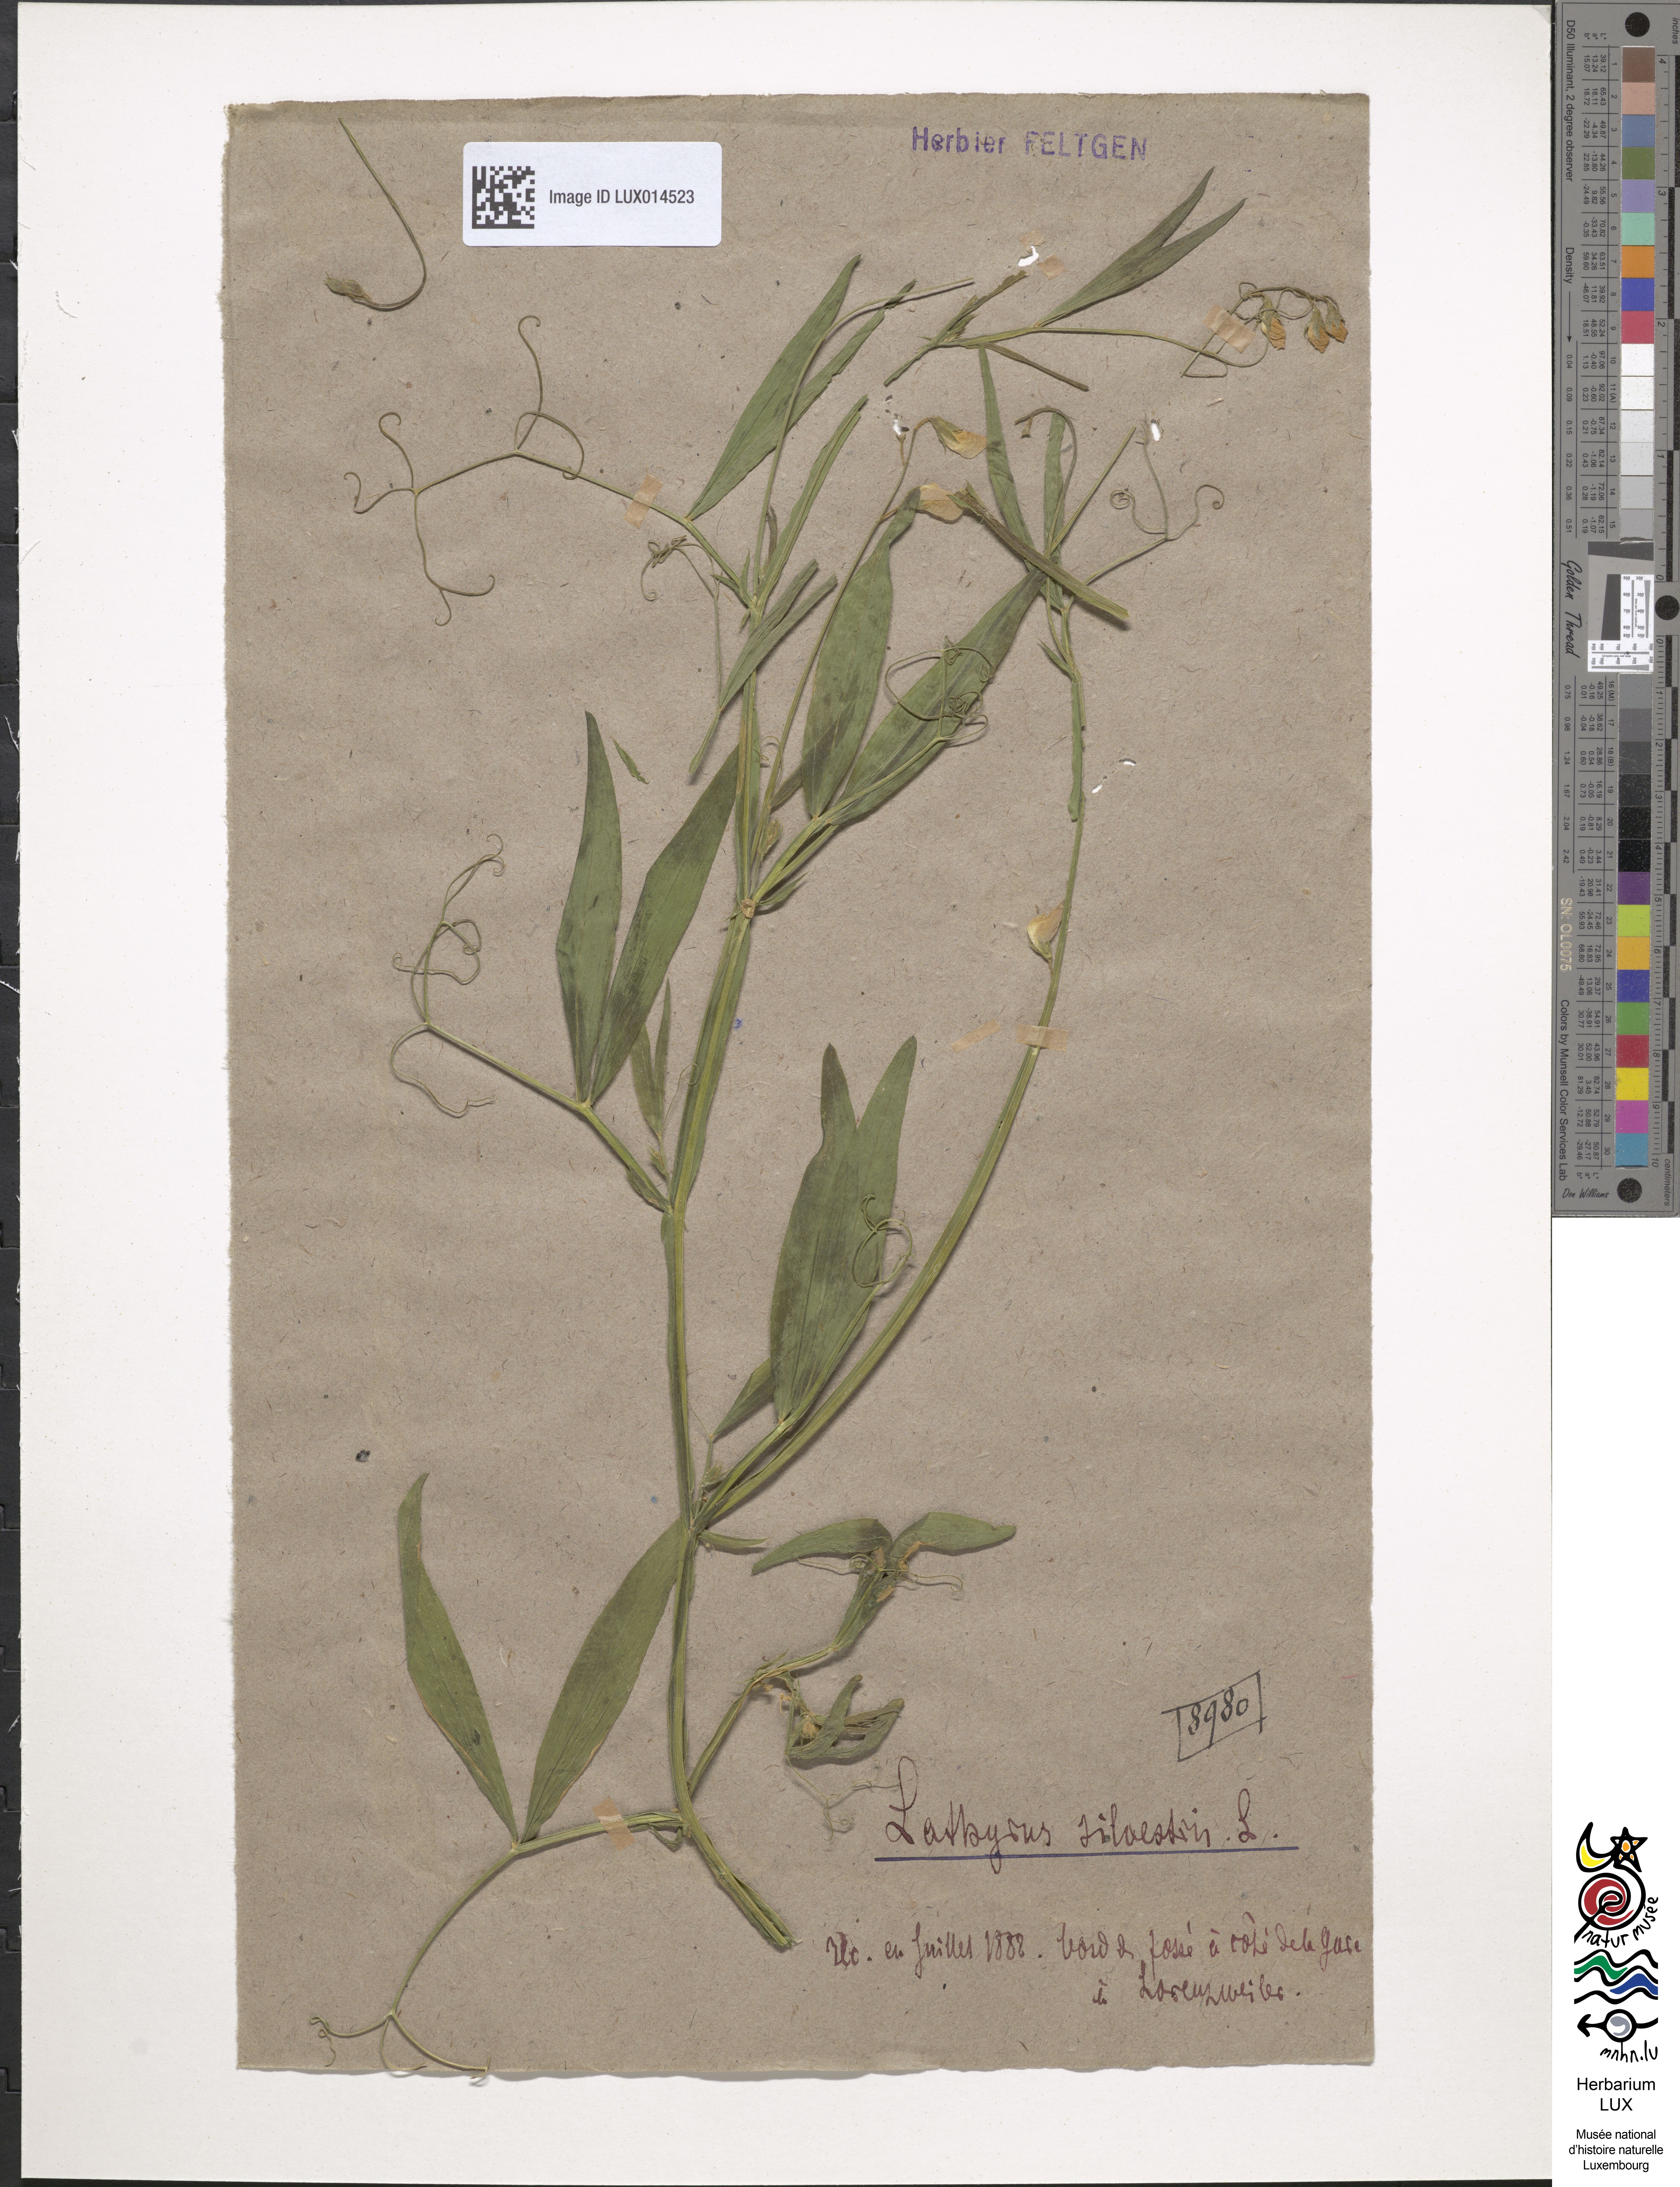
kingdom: Plantae
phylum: Tracheophyta
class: Magnoliopsida
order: Fabales
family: Fabaceae
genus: Lathyrus
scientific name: Lathyrus sylvestris
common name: Flat pea
